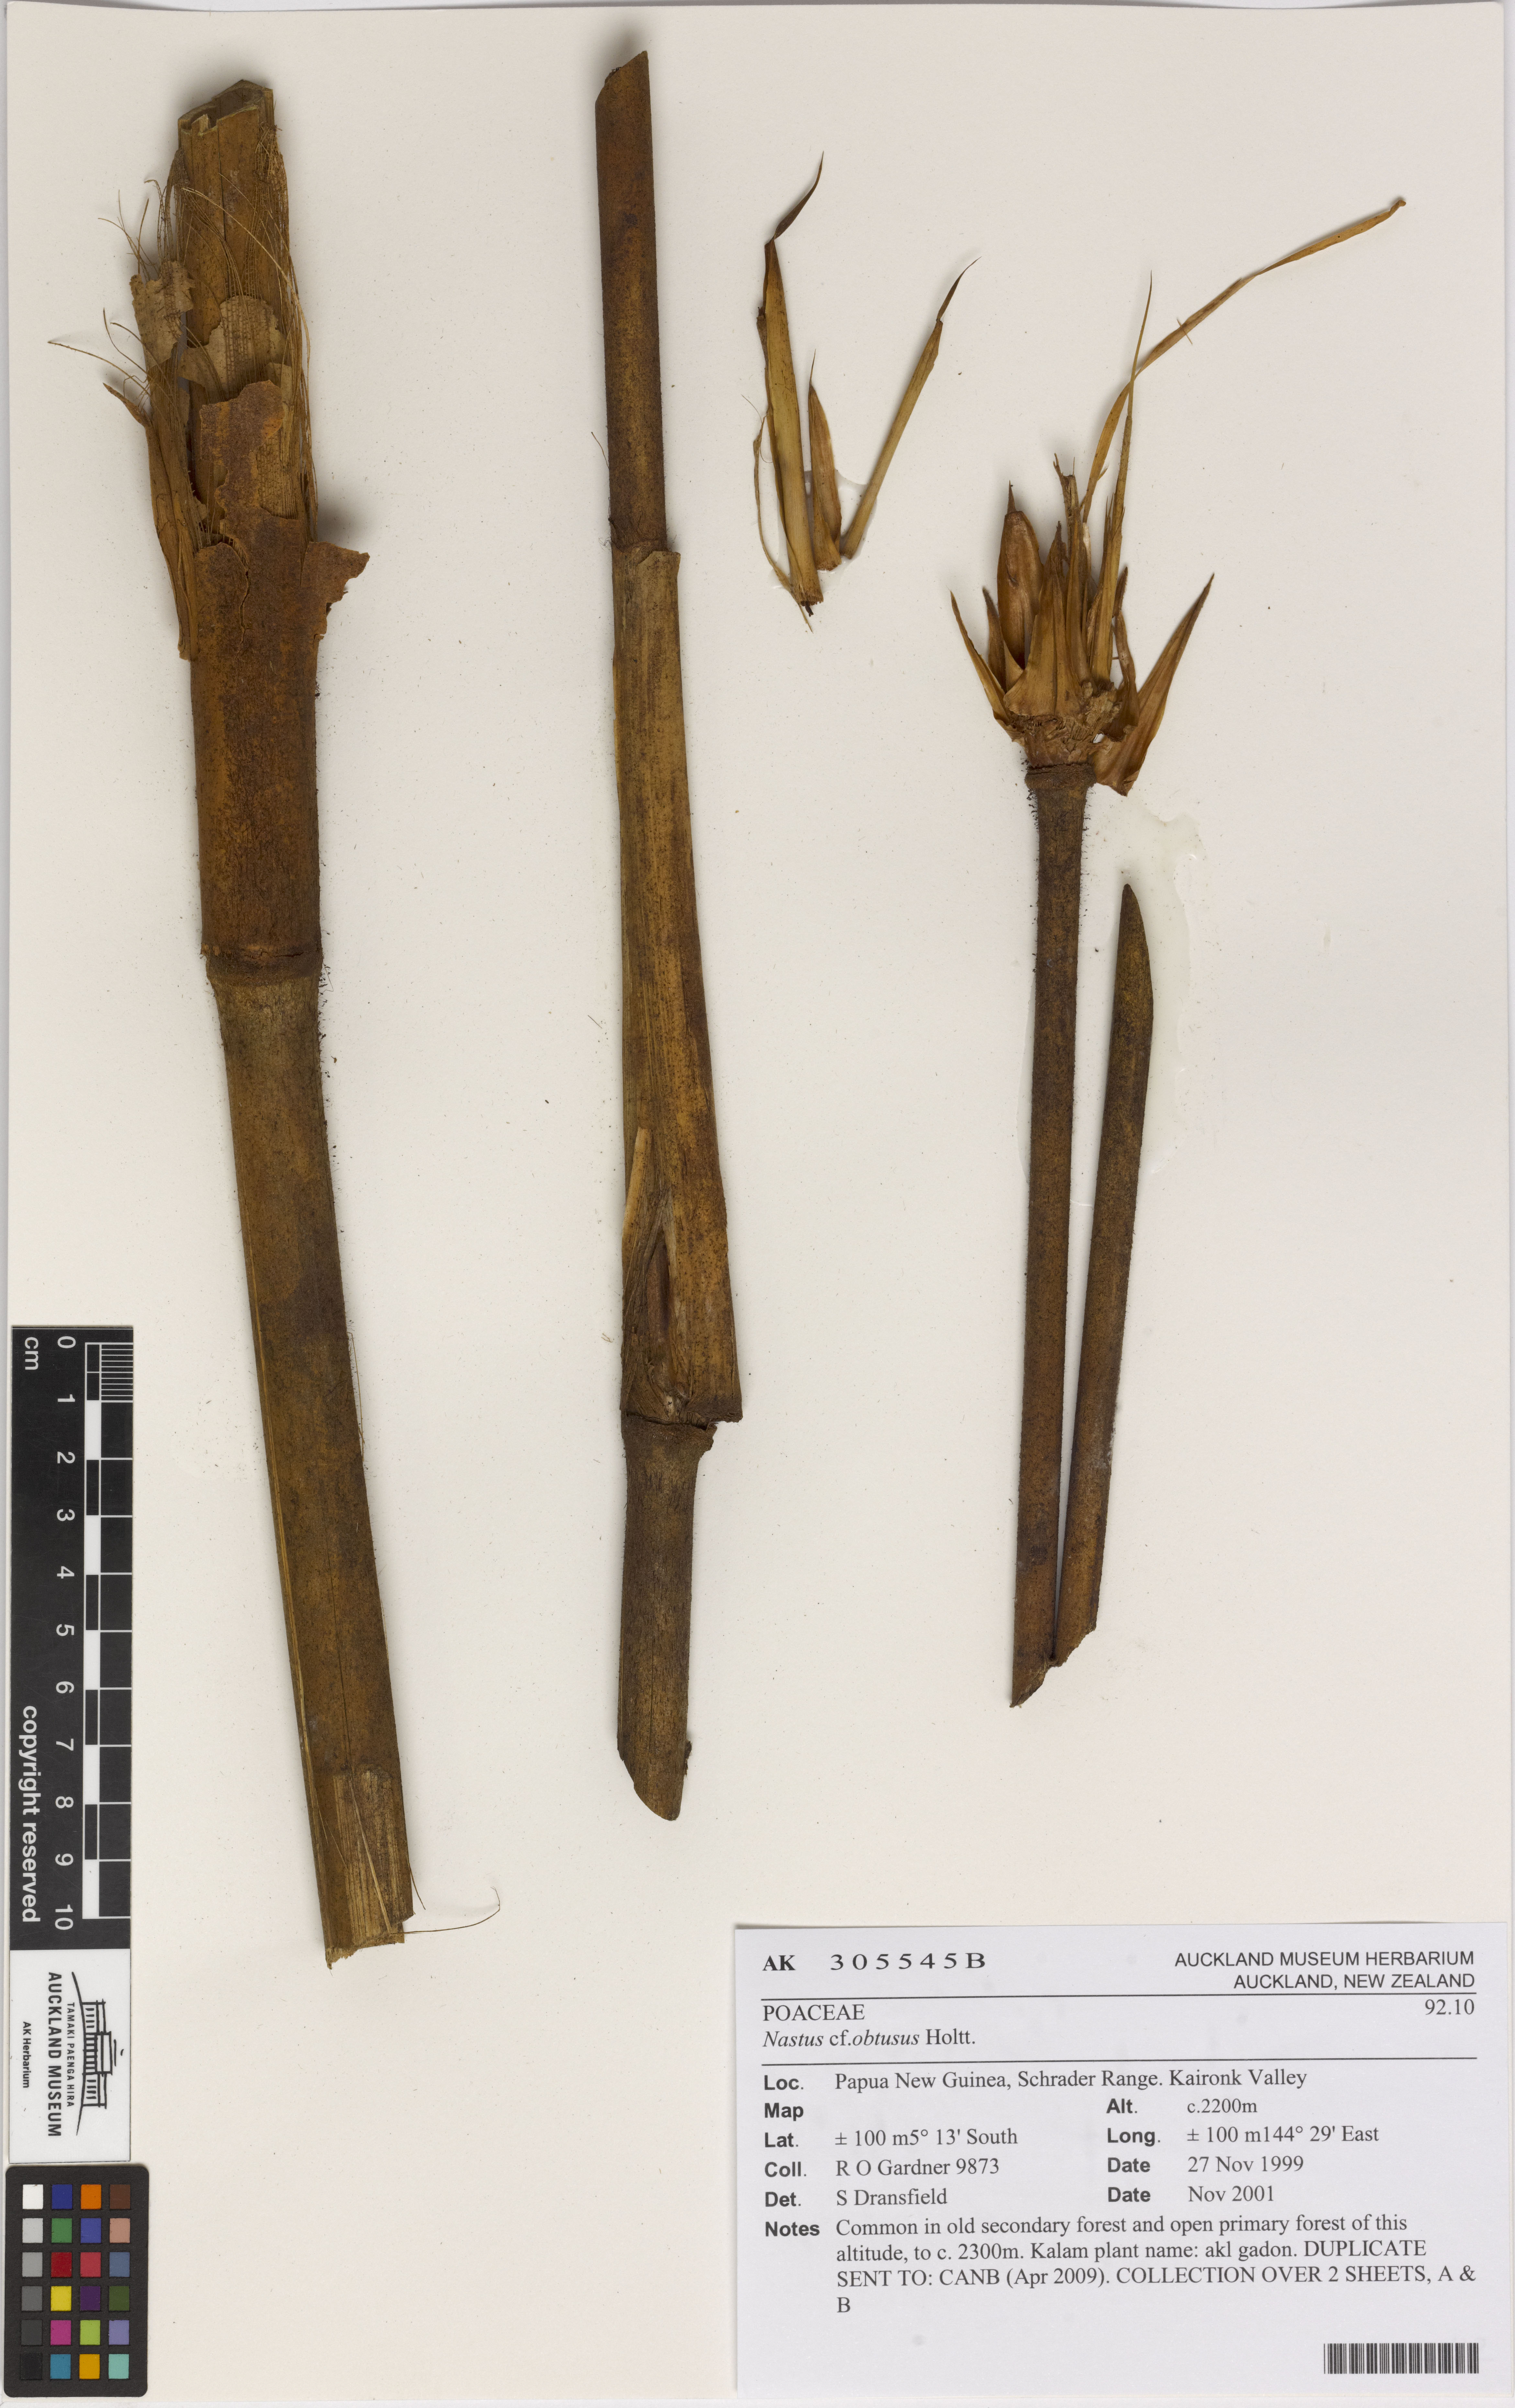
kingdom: Plantae
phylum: Tracheophyta
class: Liliopsida
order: Poales
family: Poaceae
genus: Chloothamnus
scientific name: Chloothamnus obtusus
